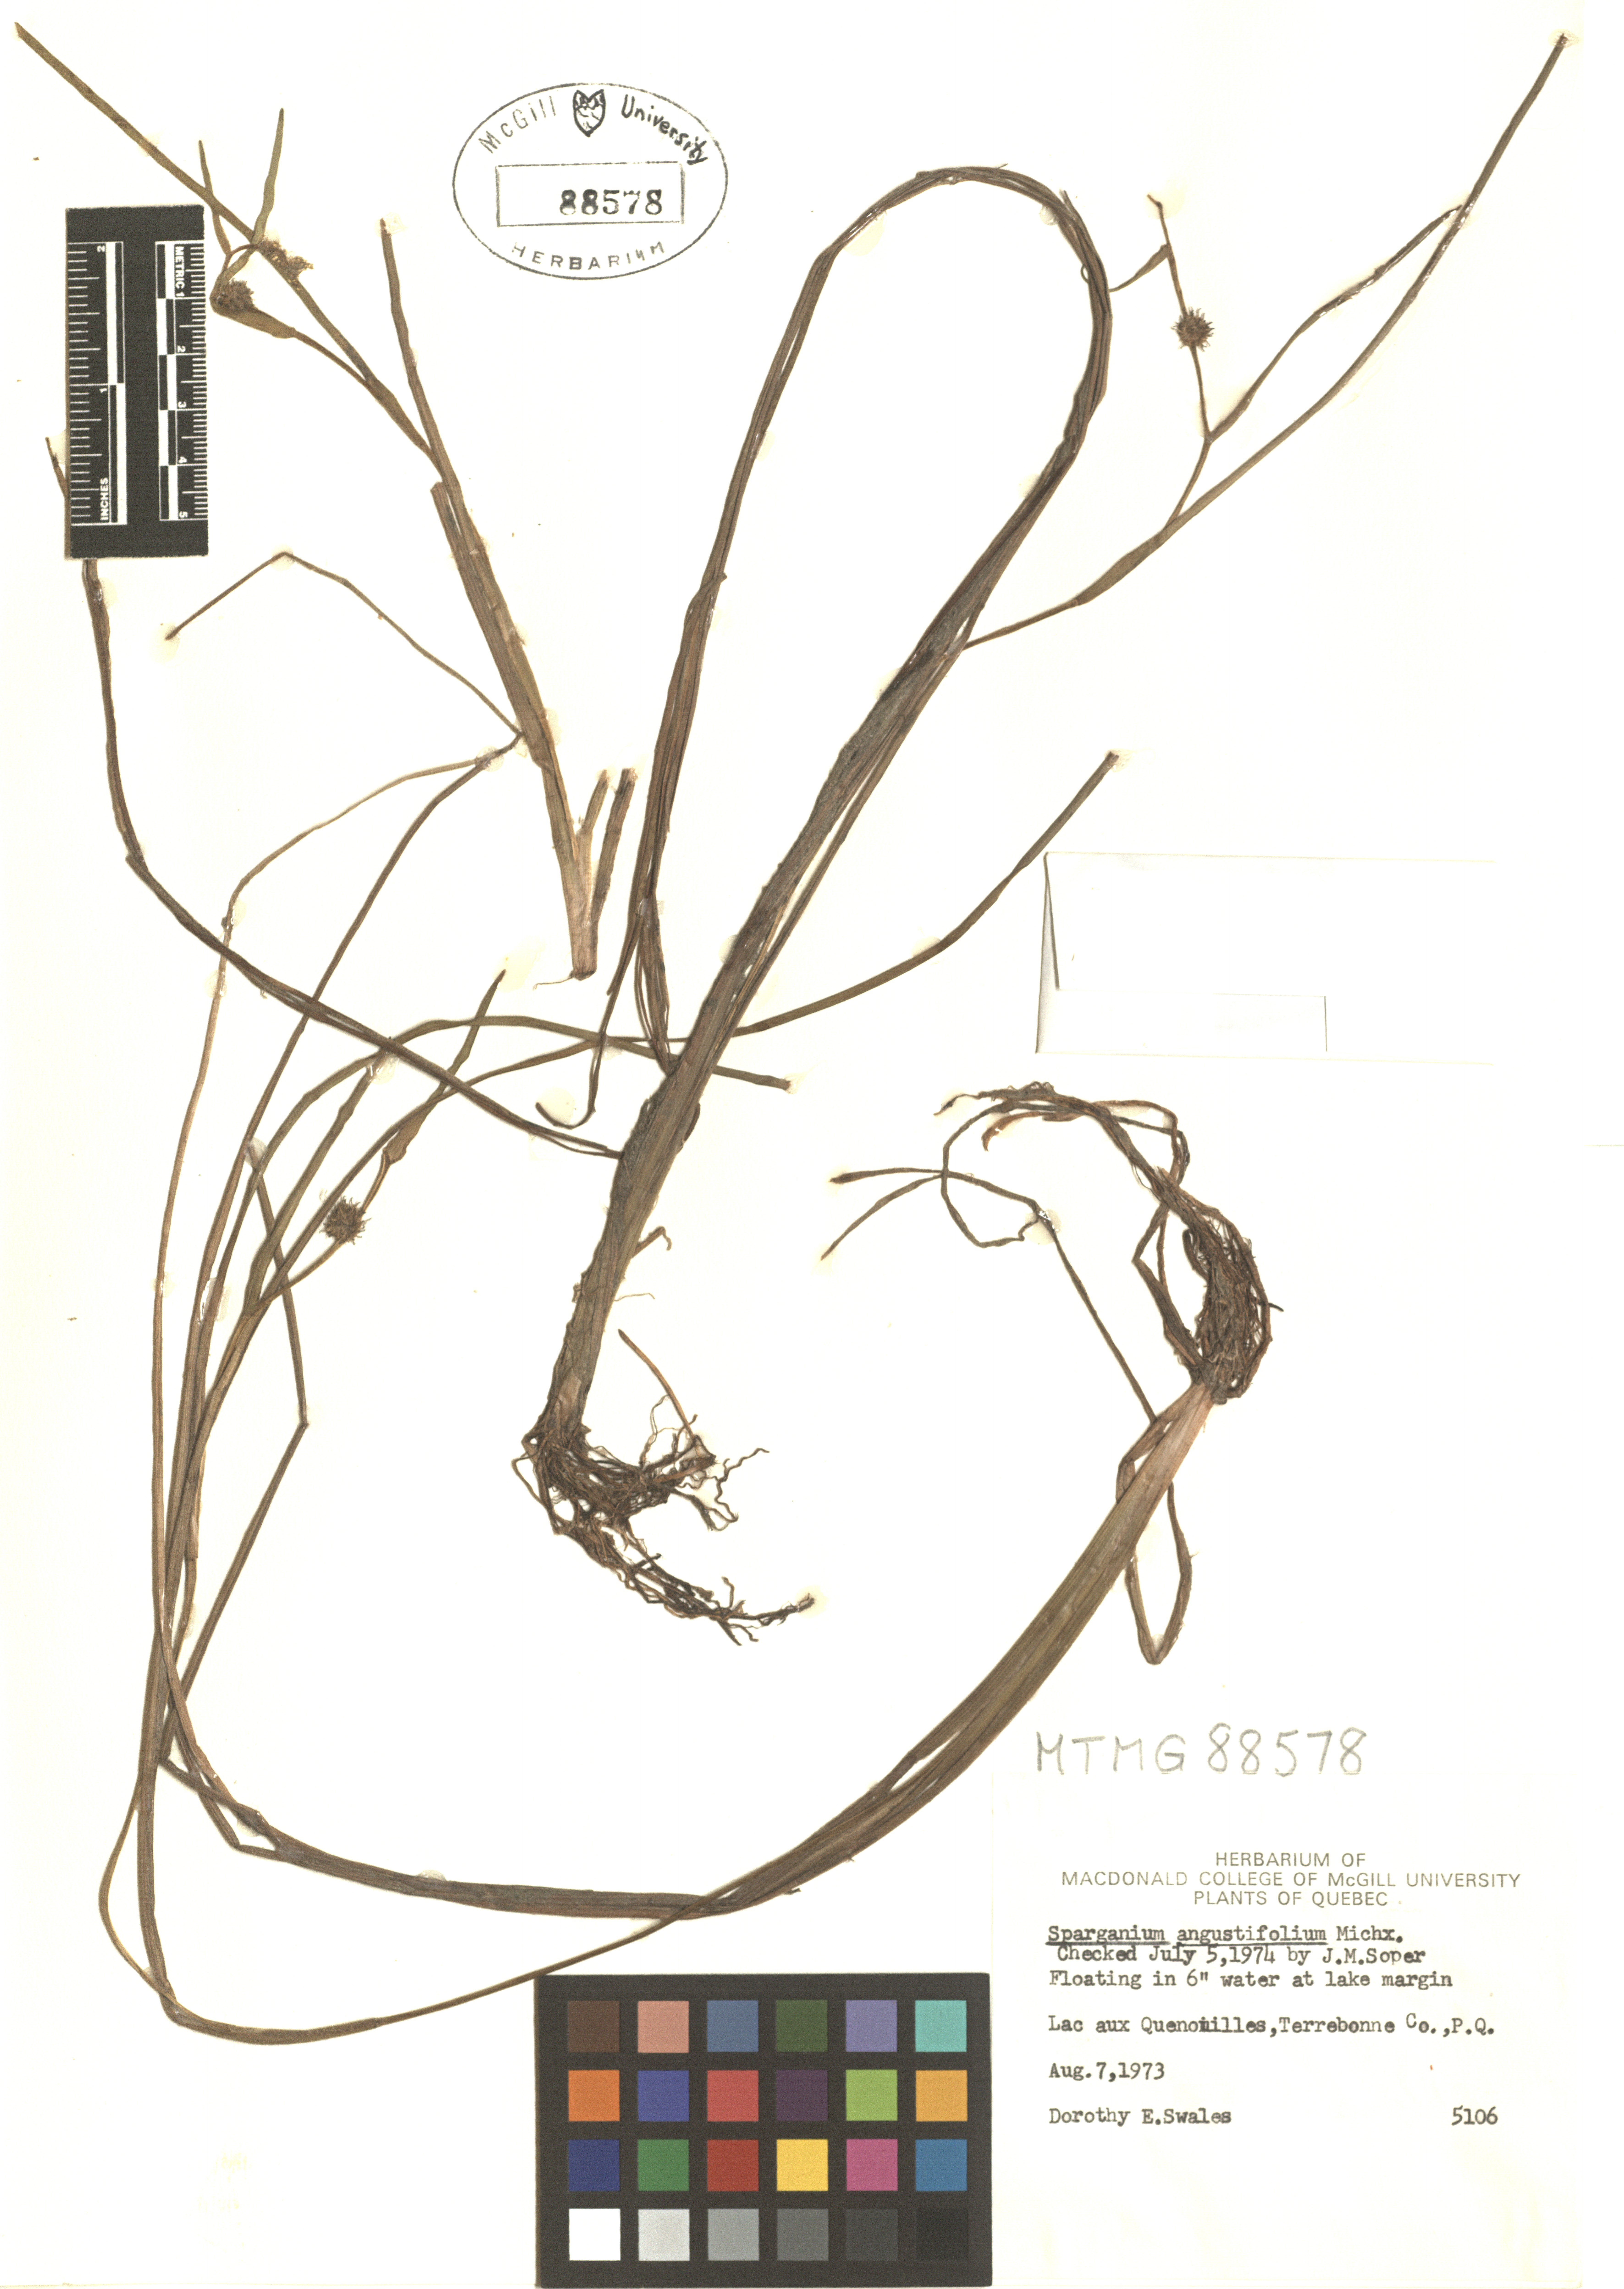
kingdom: Plantae
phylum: Tracheophyta
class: Liliopsida
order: Poales
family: Typhaceae
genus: Sparganium
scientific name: Sparganium angustifolium
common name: Floating bur-reed
